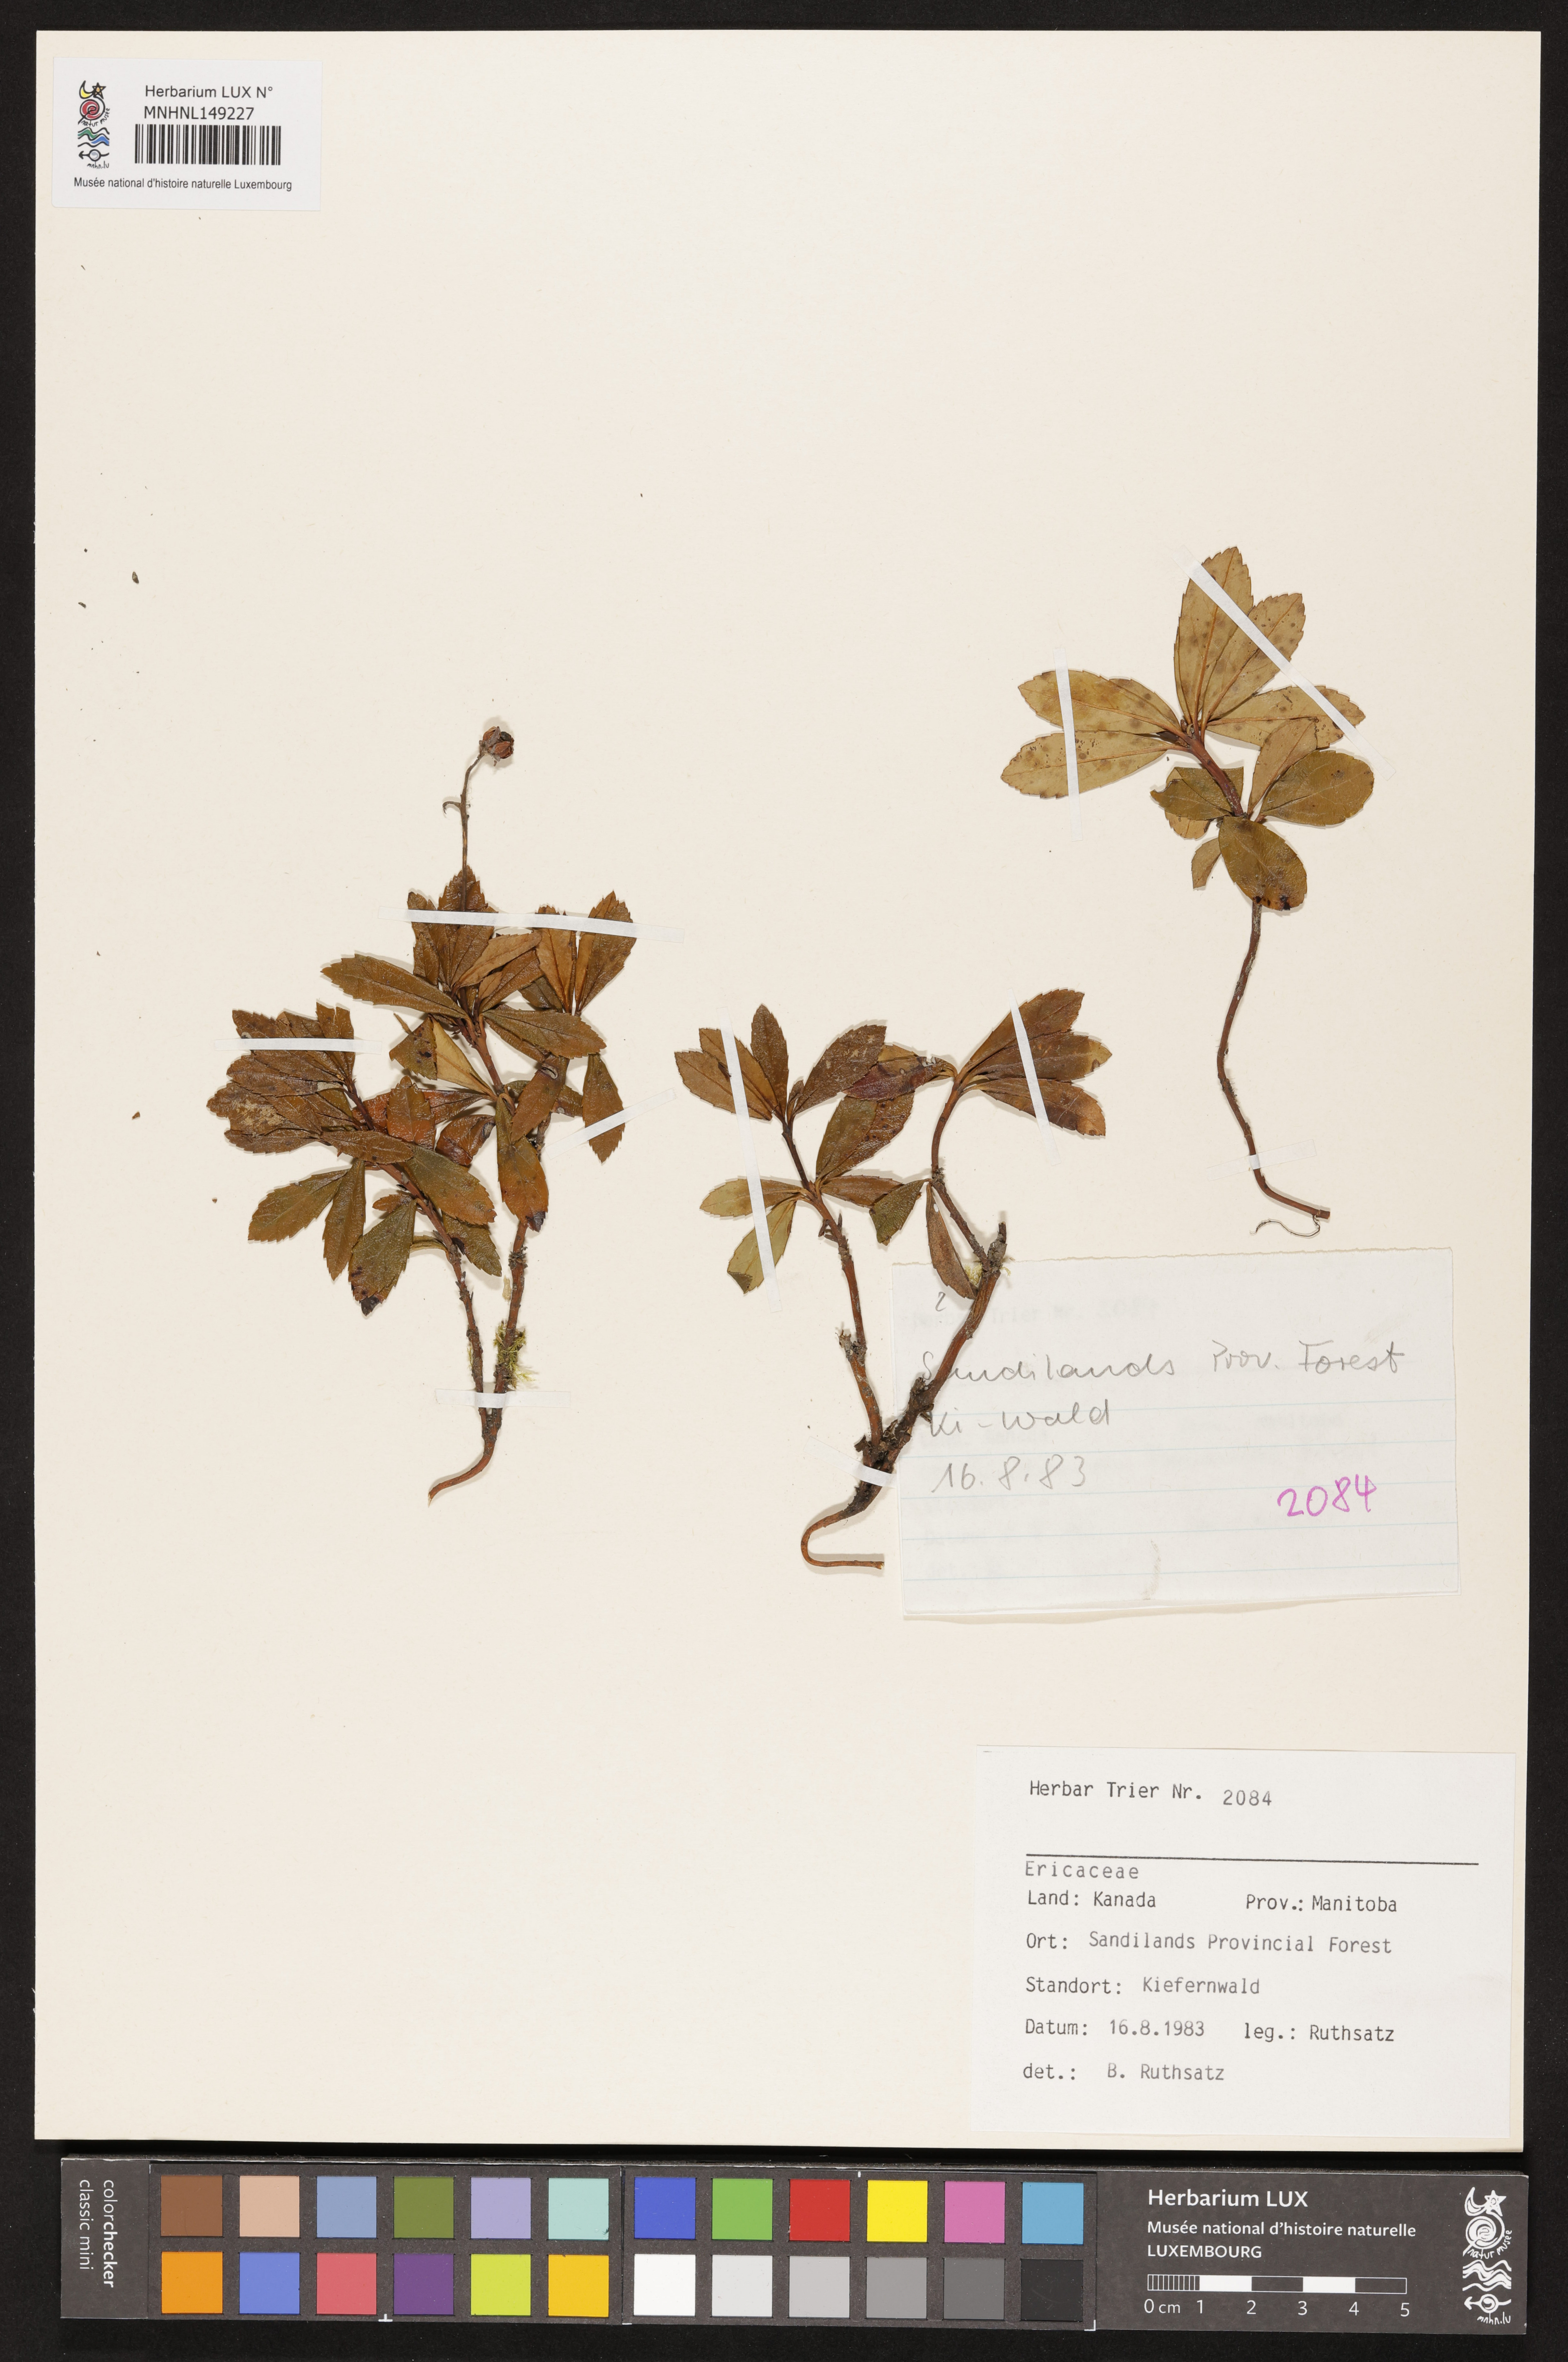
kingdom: Plantae
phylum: Tracheophyta
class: Magnoliopsida
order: Ericales
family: Ericaceae
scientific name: Ericaceae
